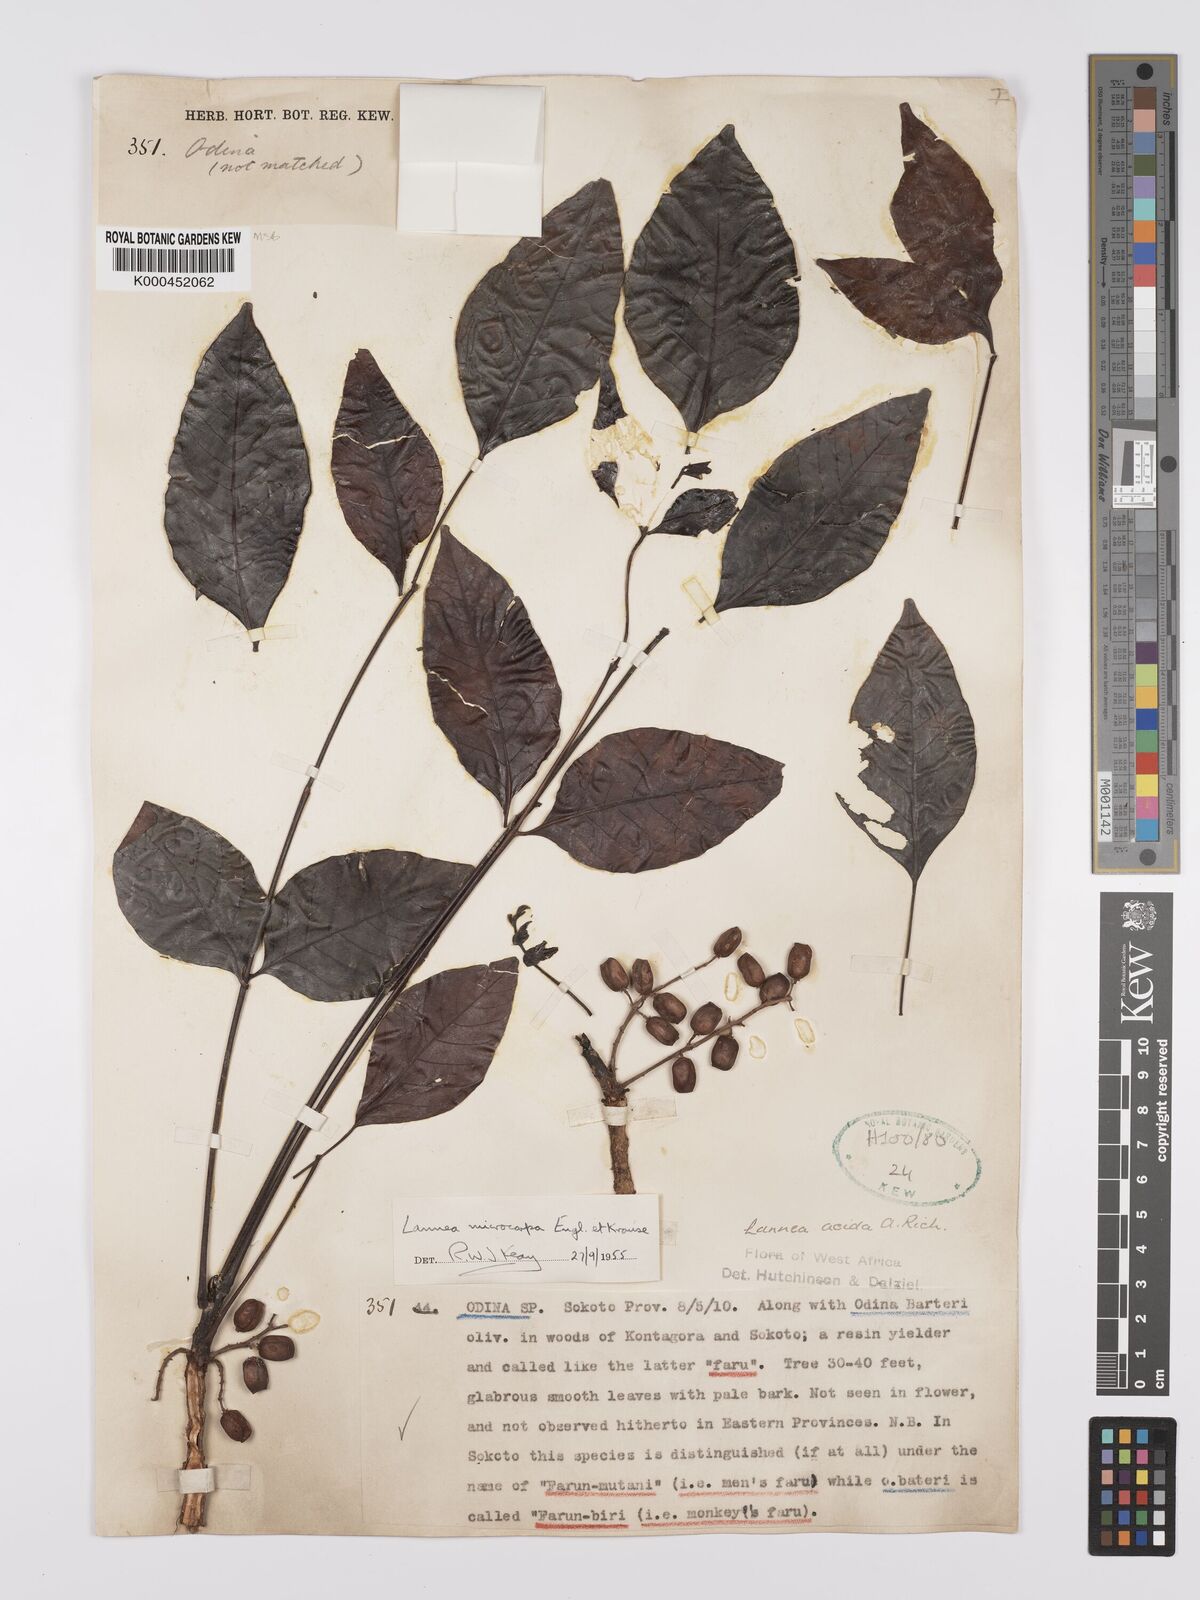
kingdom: Plantae
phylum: Tracheophyta
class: Magnoliopsida
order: Sapindales
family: Anacardiaceae
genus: Lannea
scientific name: Lannea microcarpa
